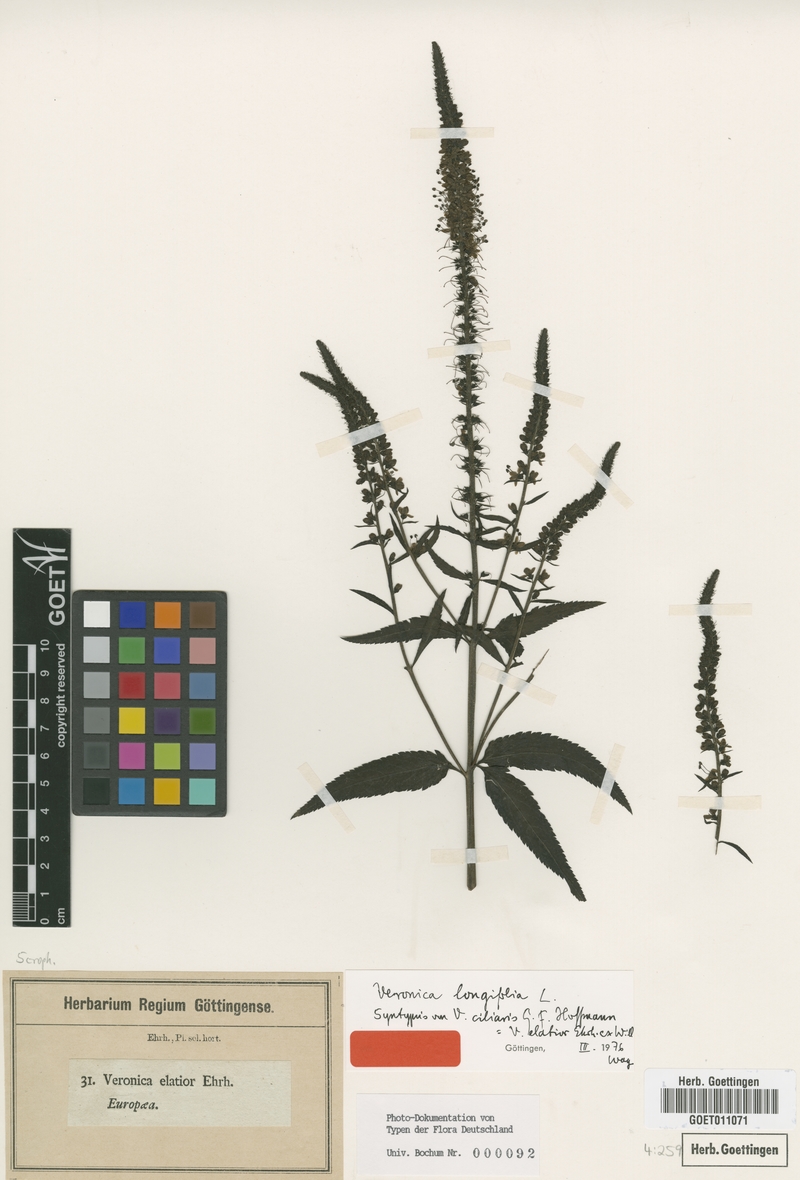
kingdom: Plantae
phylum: Tracheophyta
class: Magnoliopsida
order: Lamiales
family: Plantaginaceae
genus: Veronica
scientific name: Veronica longifolia
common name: Garden speedwell
